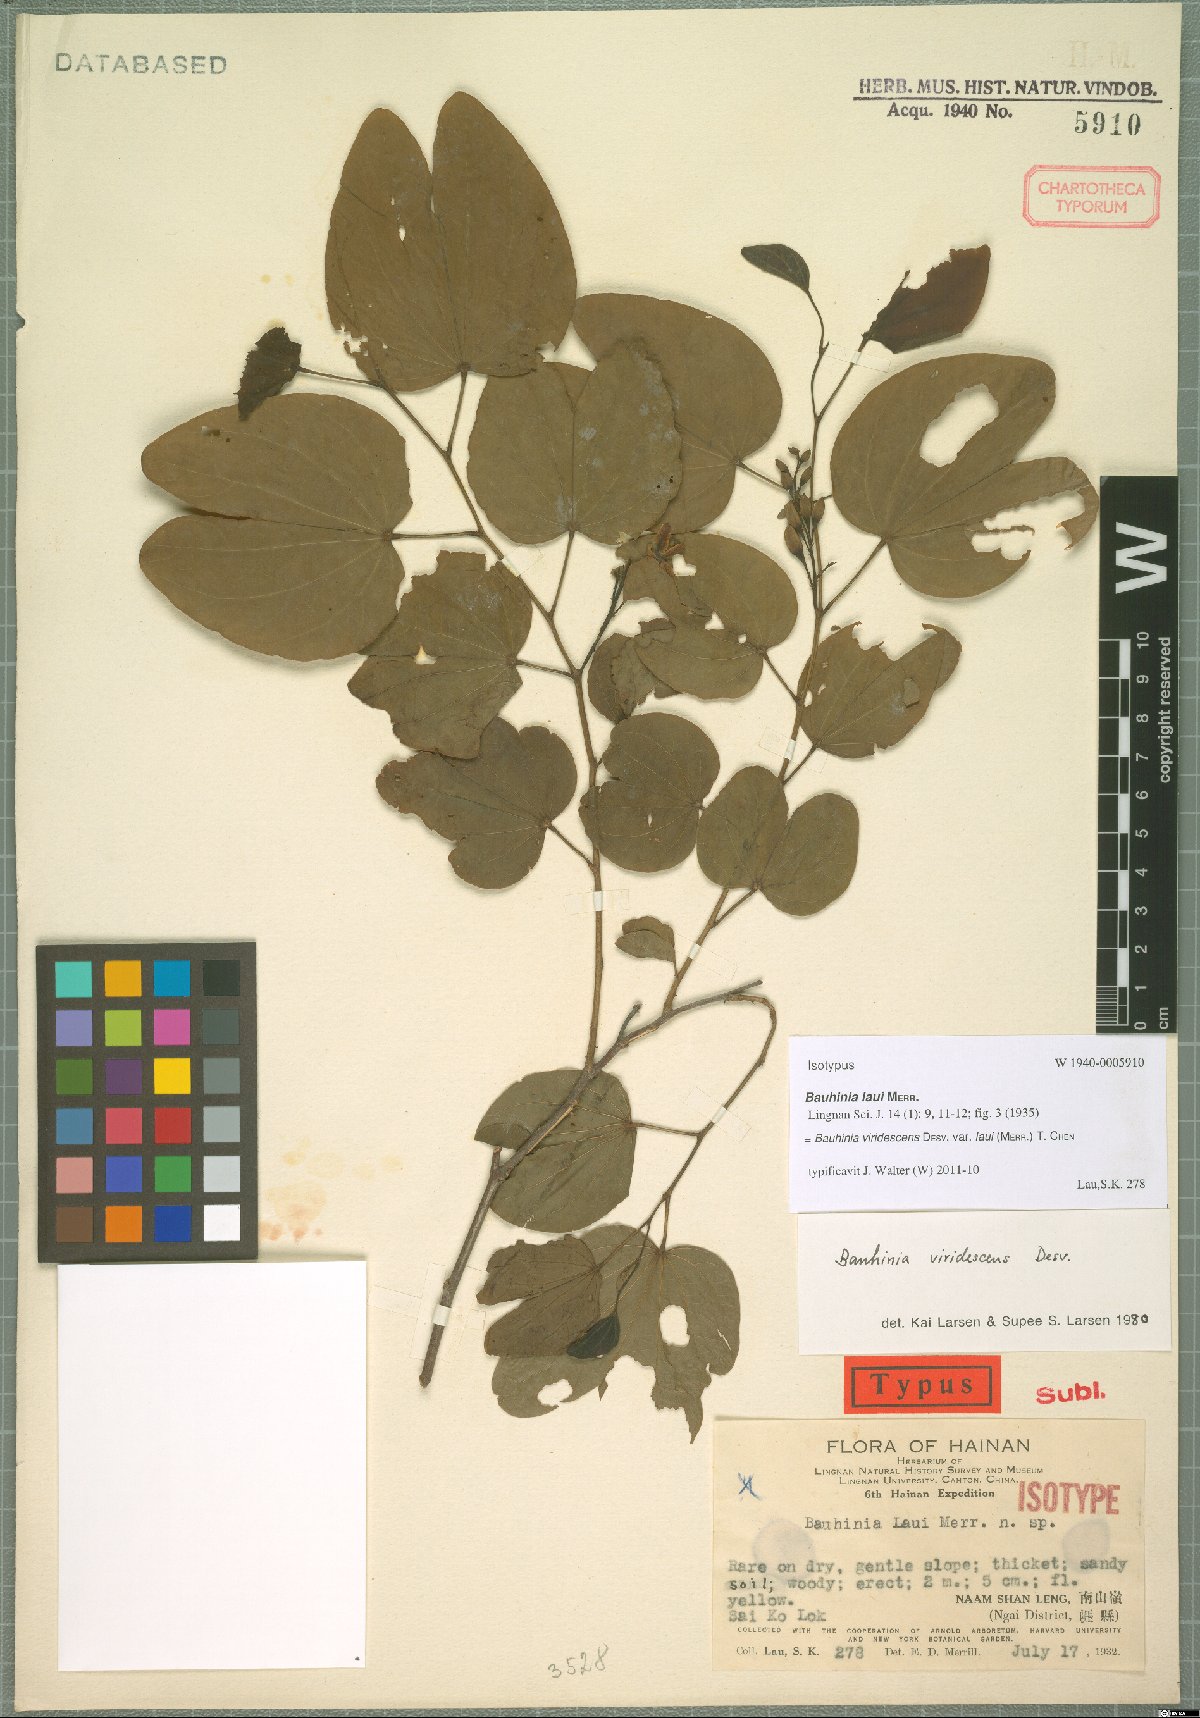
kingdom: Plantae
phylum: Tracheophyta
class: Magnoliopsida
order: Fabales
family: Fabaceae
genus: Bauhinia
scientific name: Bauhinia viridescens
